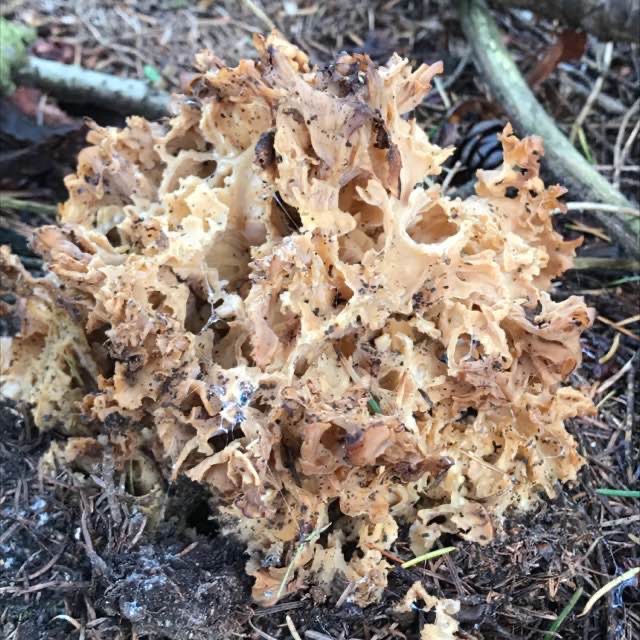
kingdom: Fungi
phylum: Basidiomycota
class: Agaricomycetes
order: Polyporales
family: Sparassidaceae
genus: Sparassis
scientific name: Sparassis crispa
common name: Kruset blomkålssvamp
